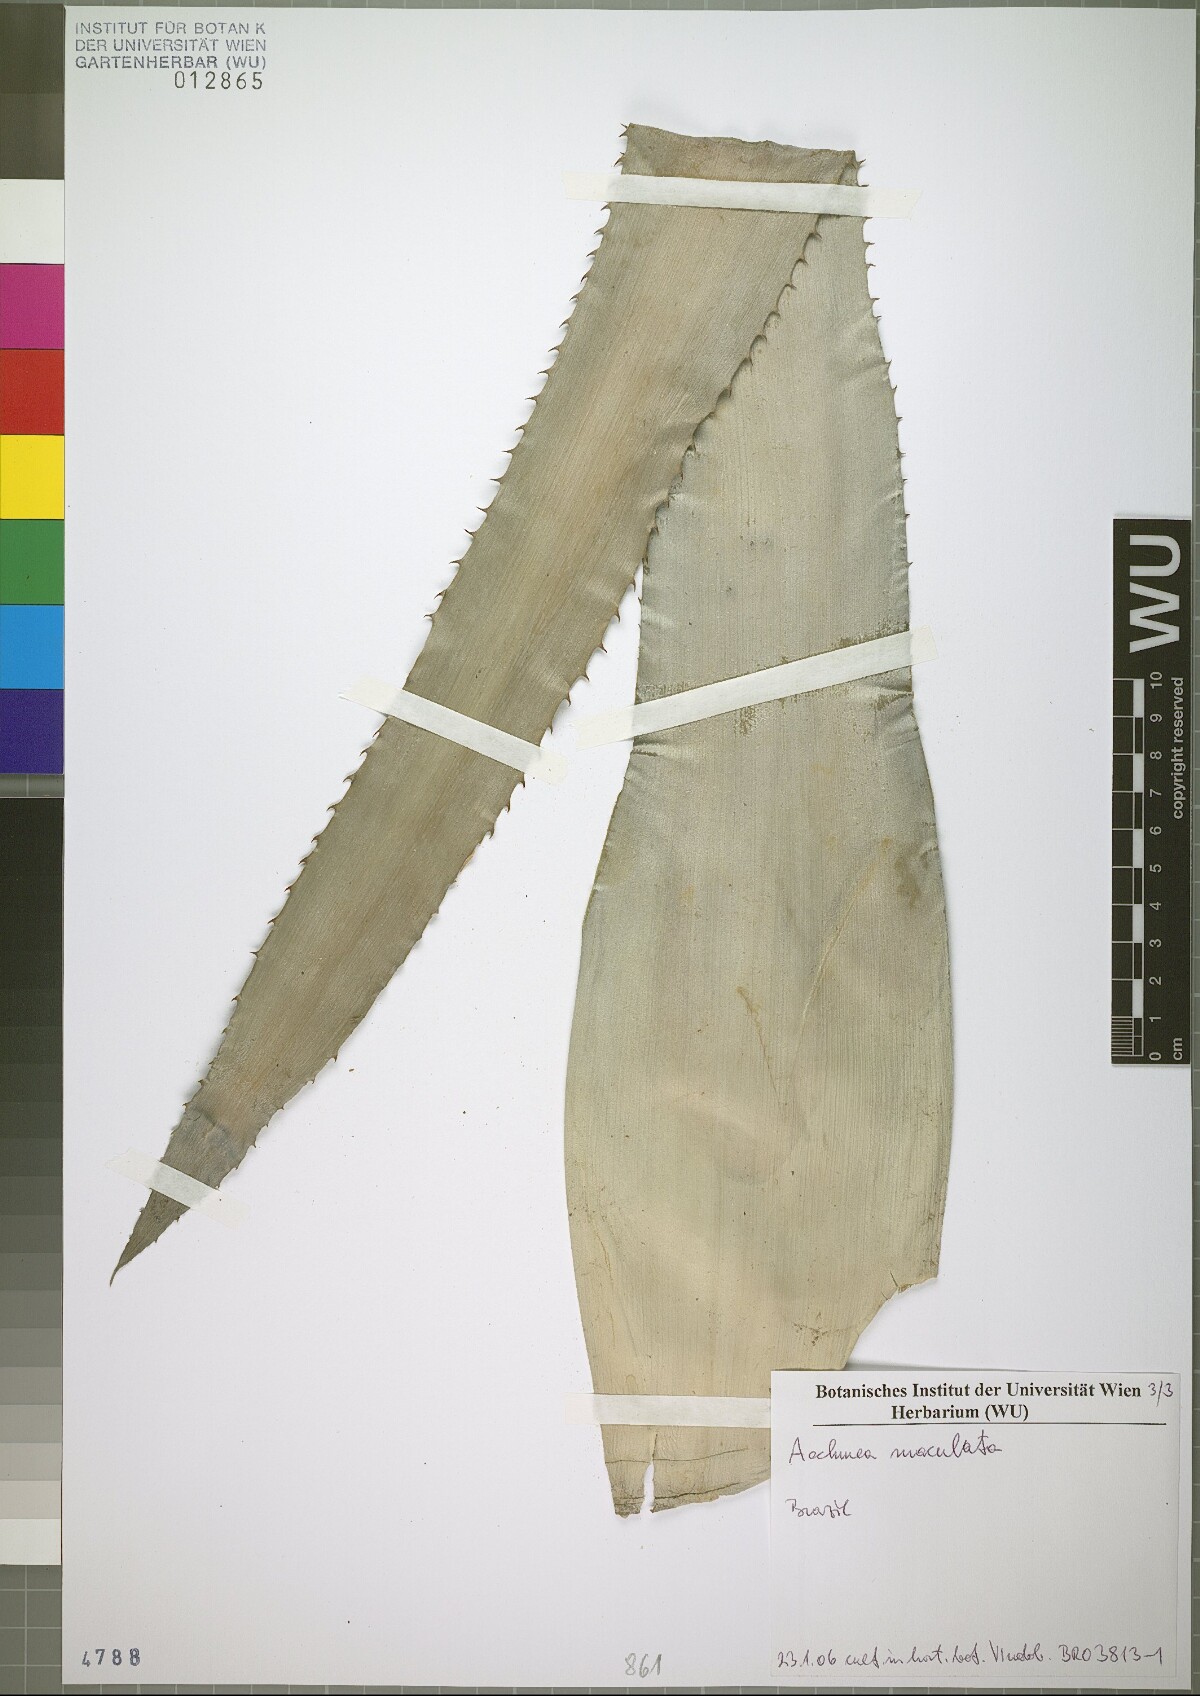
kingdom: Plantae
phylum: Tracheophyta
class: Liliopsida
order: Poales
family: Bromeliaceae
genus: Aechmea
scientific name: Aechmea maculata
